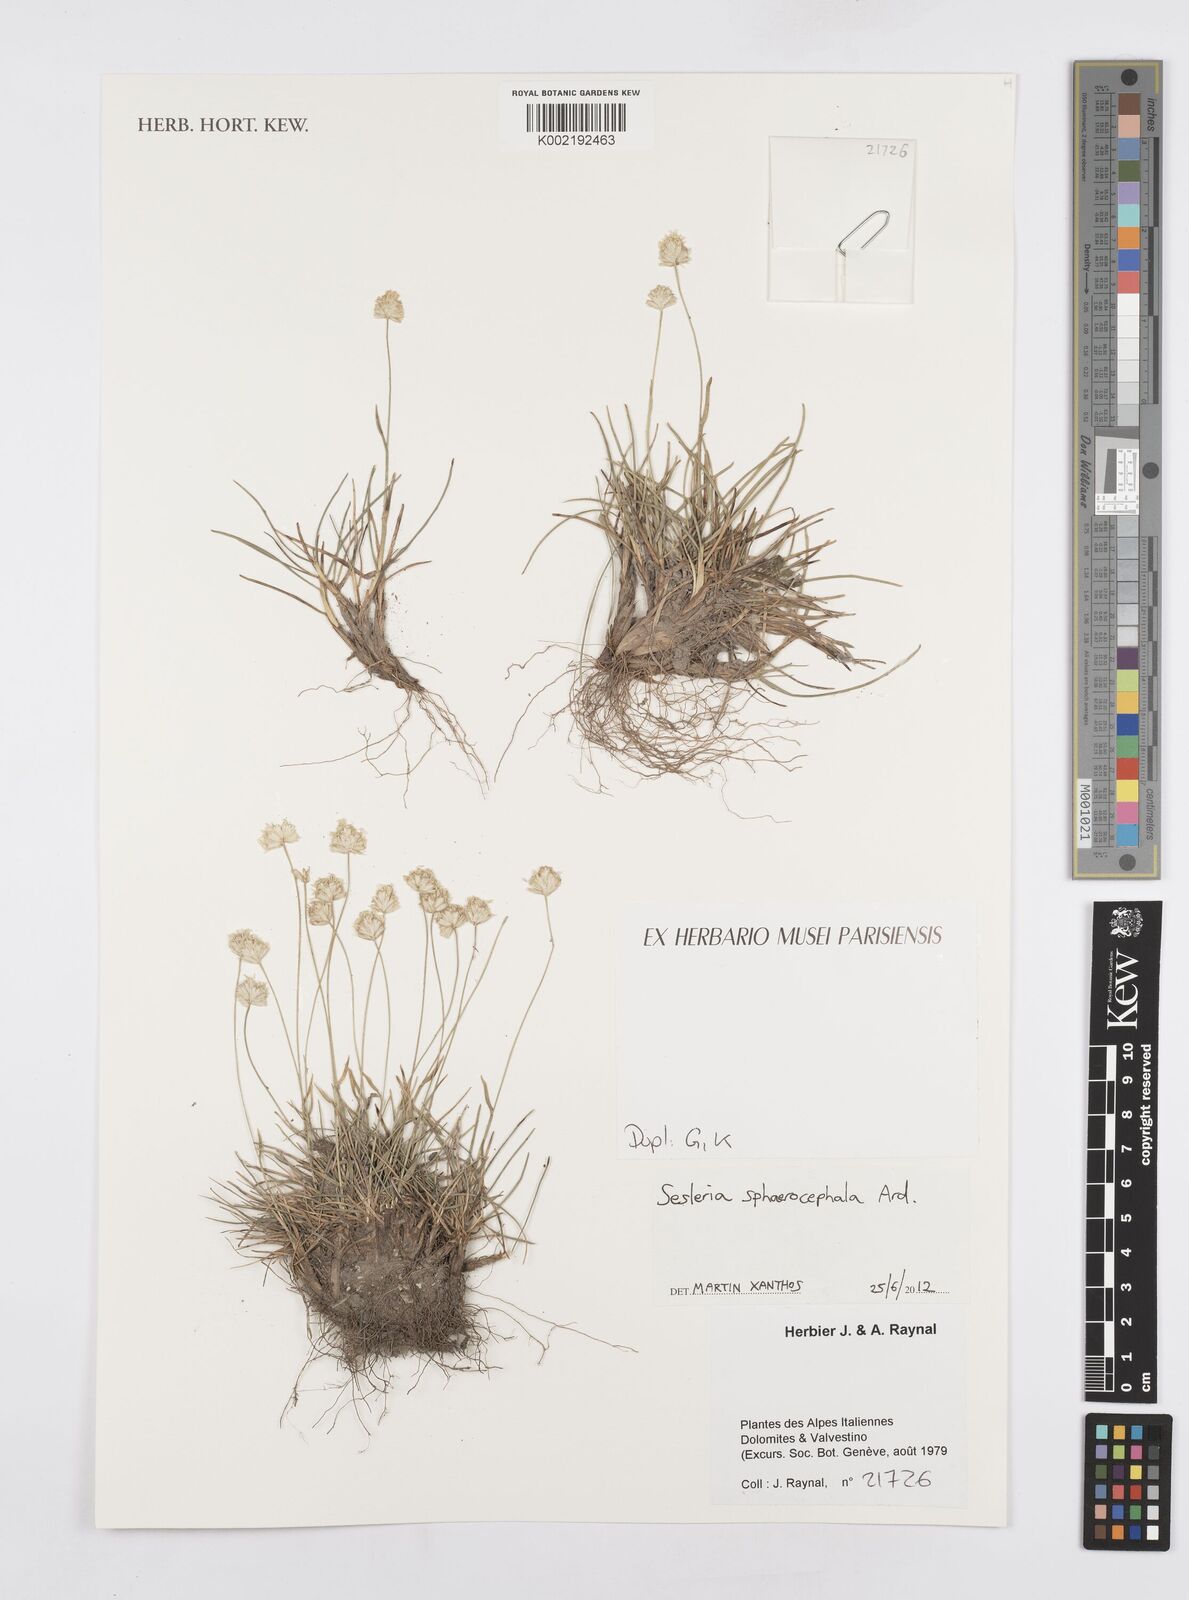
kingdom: Plantae
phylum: Tracheophyta
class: Liliopsida
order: Poales
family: Poaceae
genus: Sesleriella
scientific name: Sesleriella sphaerocephala
